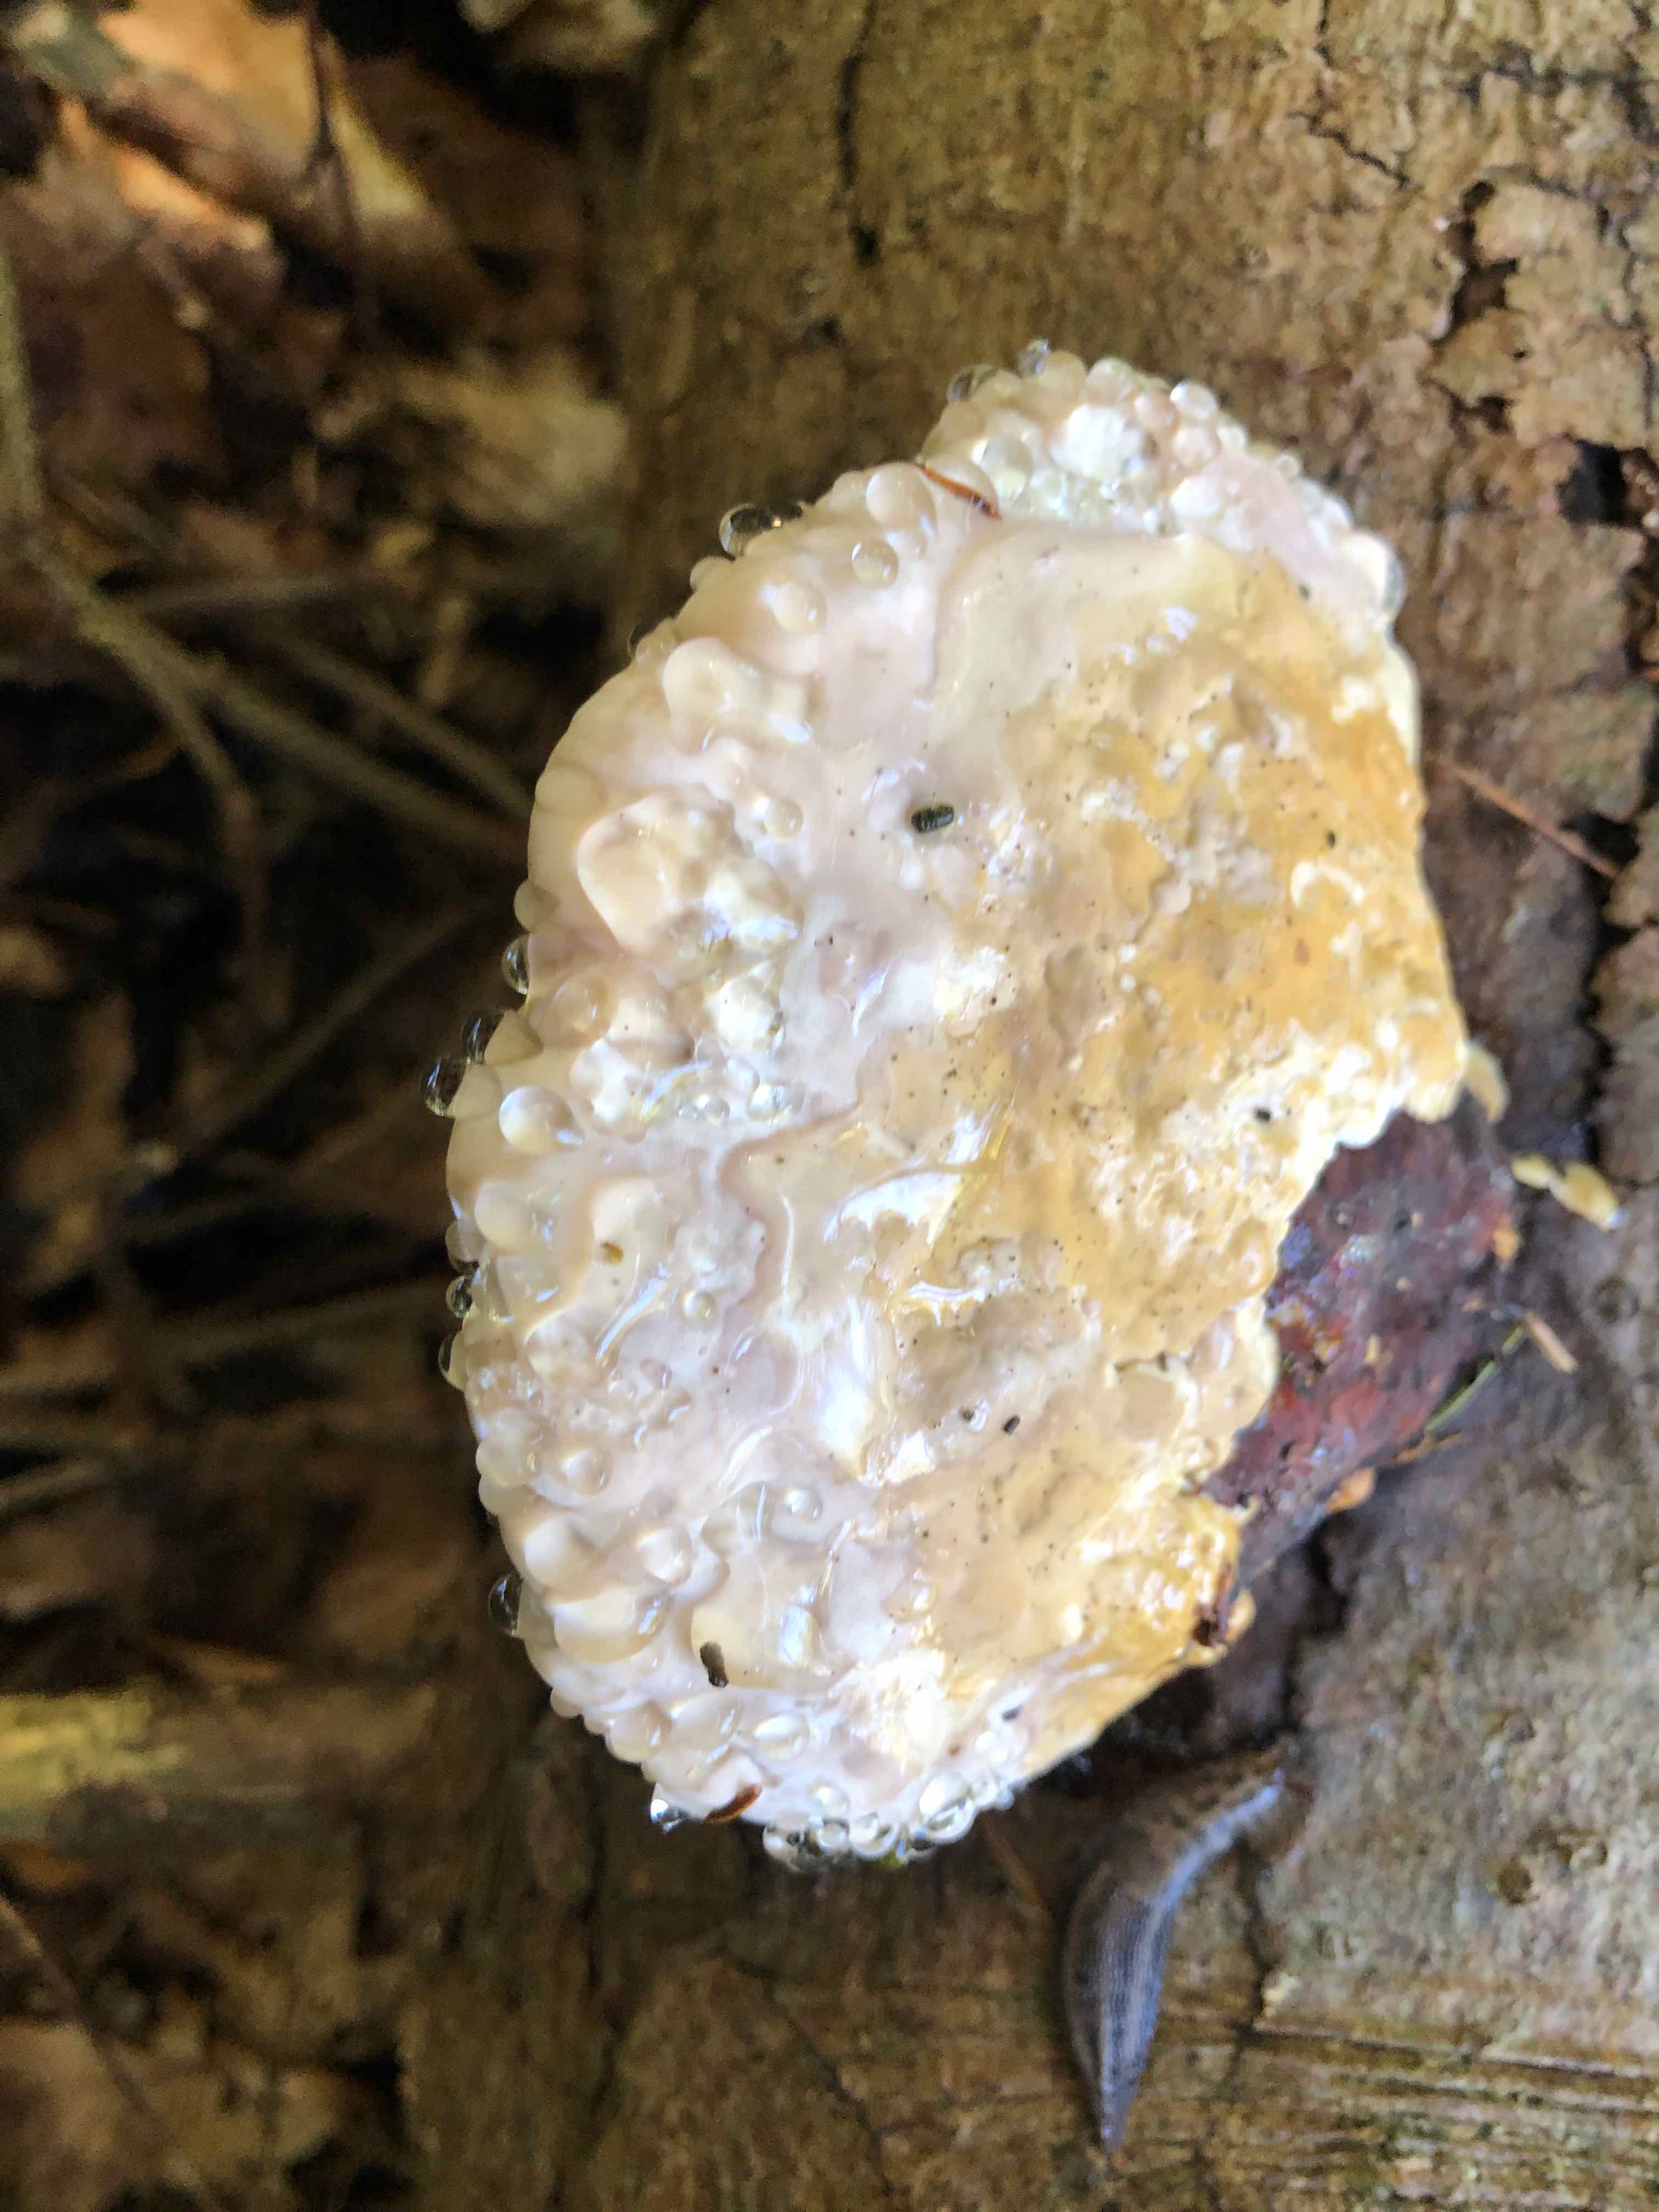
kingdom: Fungi
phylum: Basidiomycota
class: Agaricomycetes
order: Polyporales
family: Fomitopsidaceae
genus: Fomitopsis
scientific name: Fomitopsis pinicola
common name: randbæltet hovporesvamp
